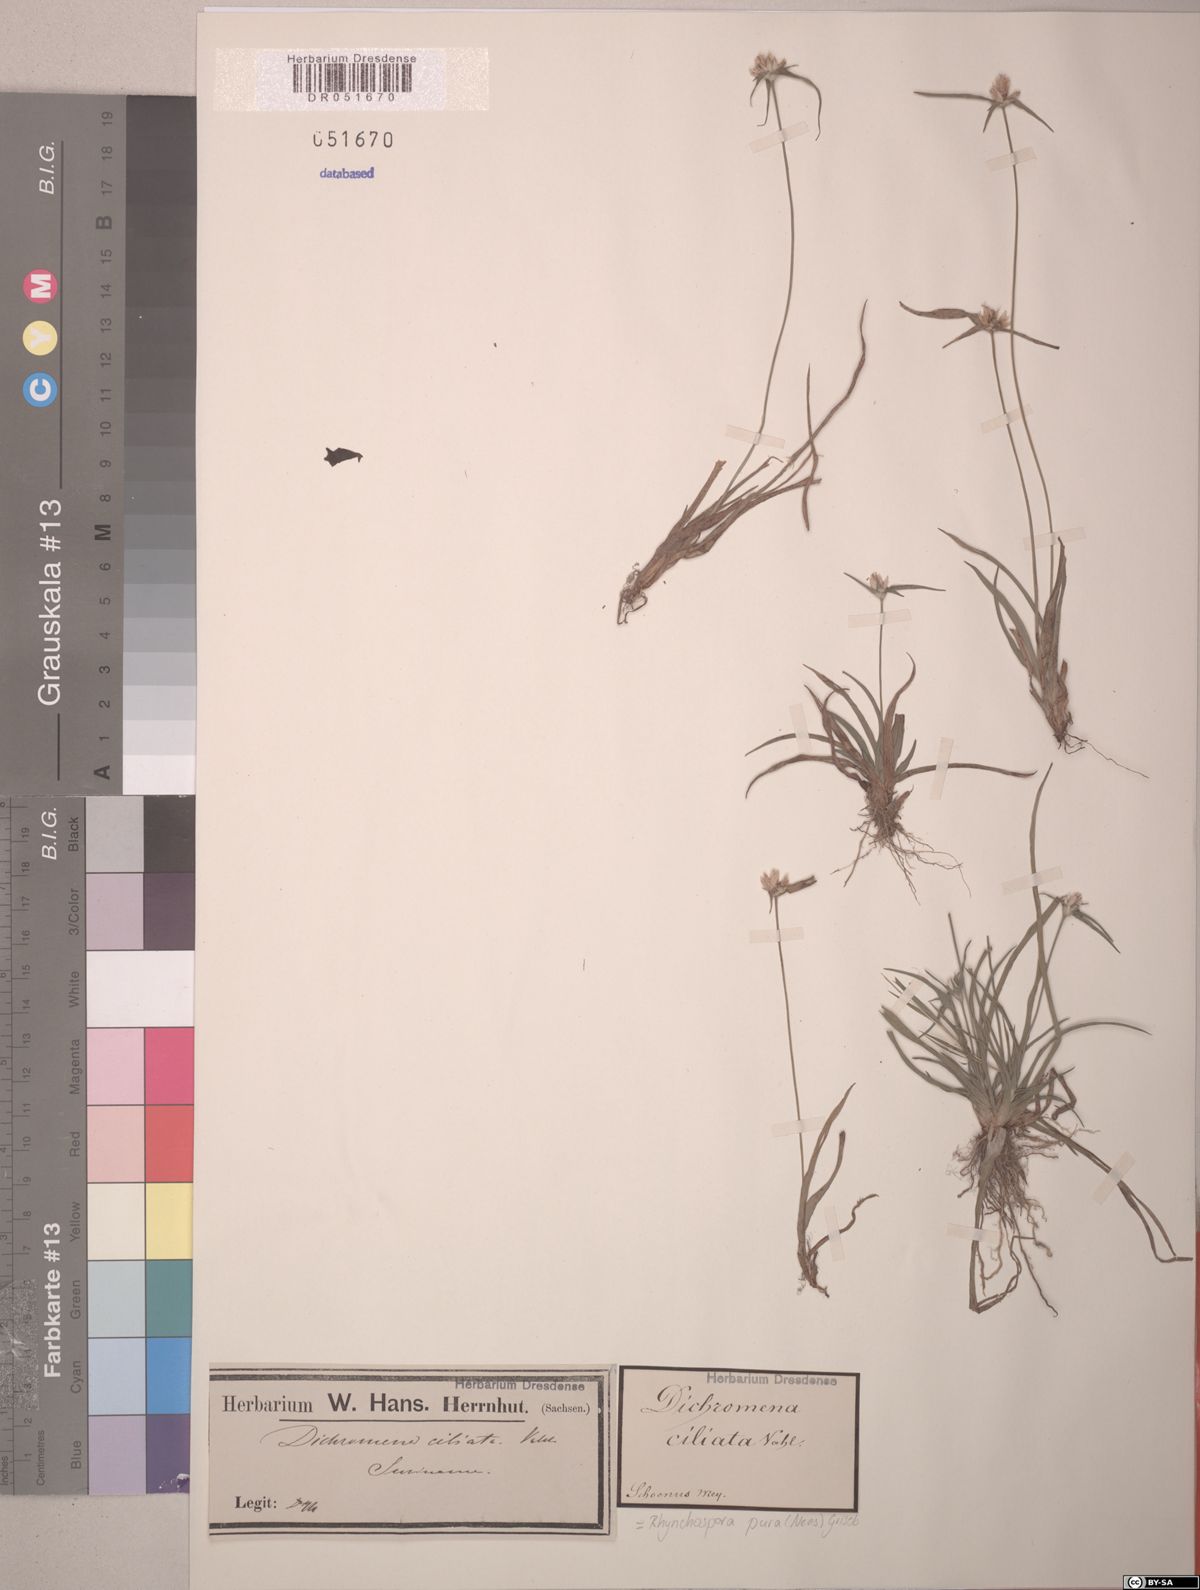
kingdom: Plantae
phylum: Tracheophyta
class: Liliopsida
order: Poales
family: Cyperaceae
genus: Rhynchospora
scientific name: Rhynchospora pura
